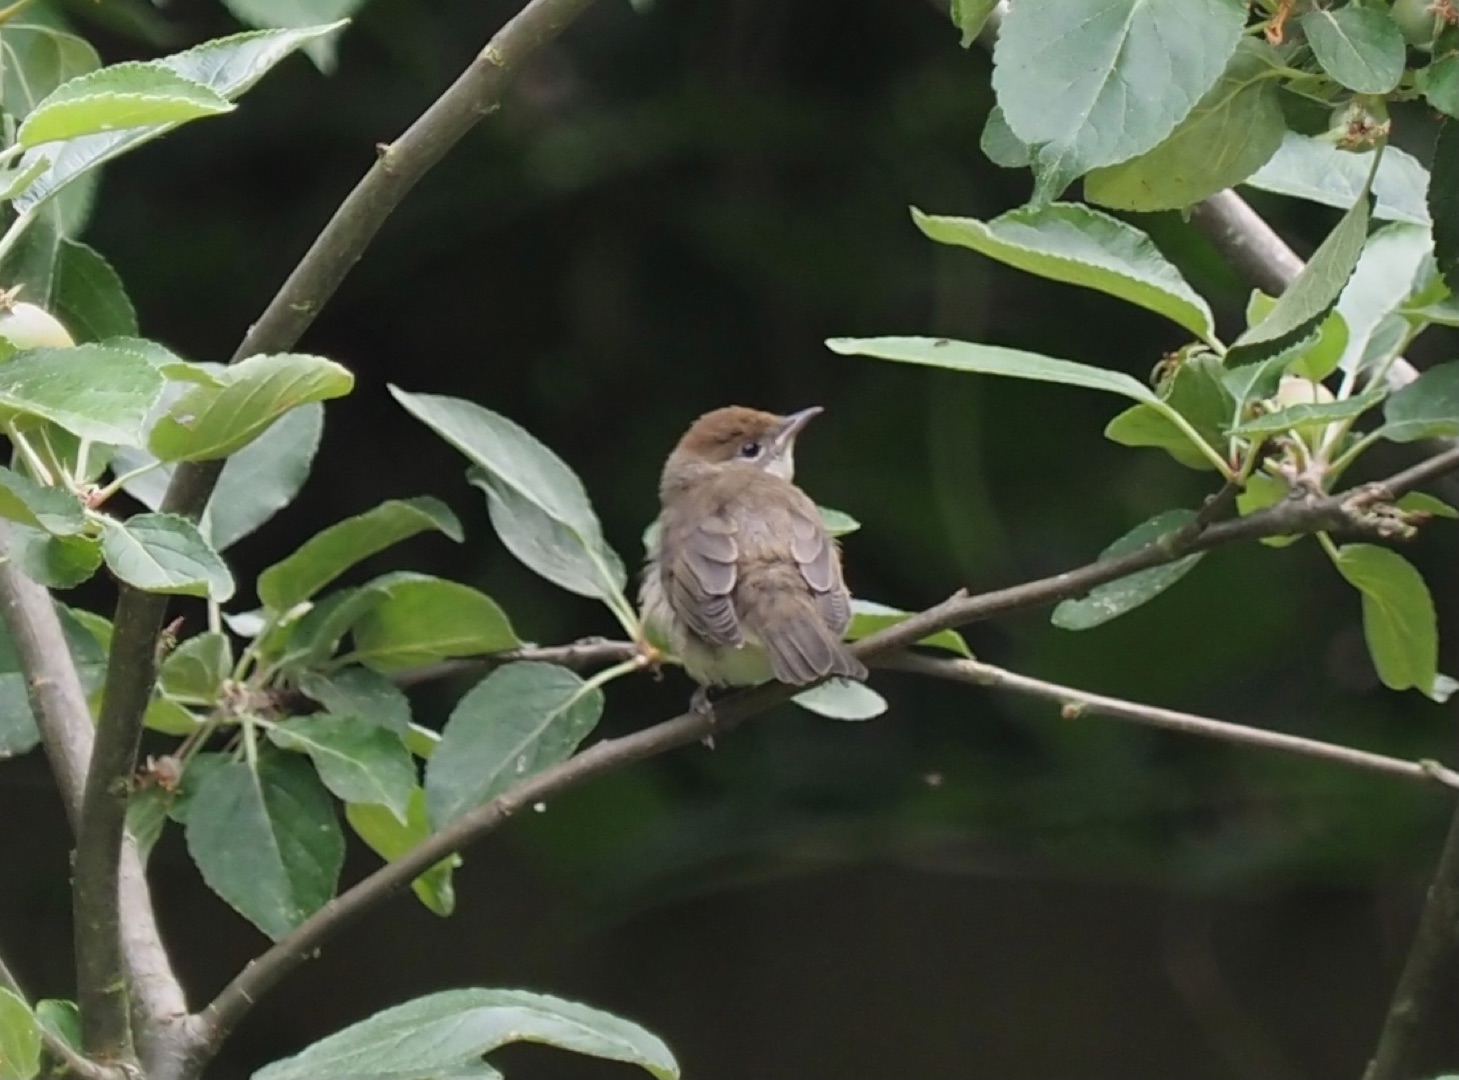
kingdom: Animalia
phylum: Chordata
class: Aves
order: Passeriformes
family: Sylviidae
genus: Sylvia
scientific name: Sylvia atricapilla
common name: Munk
